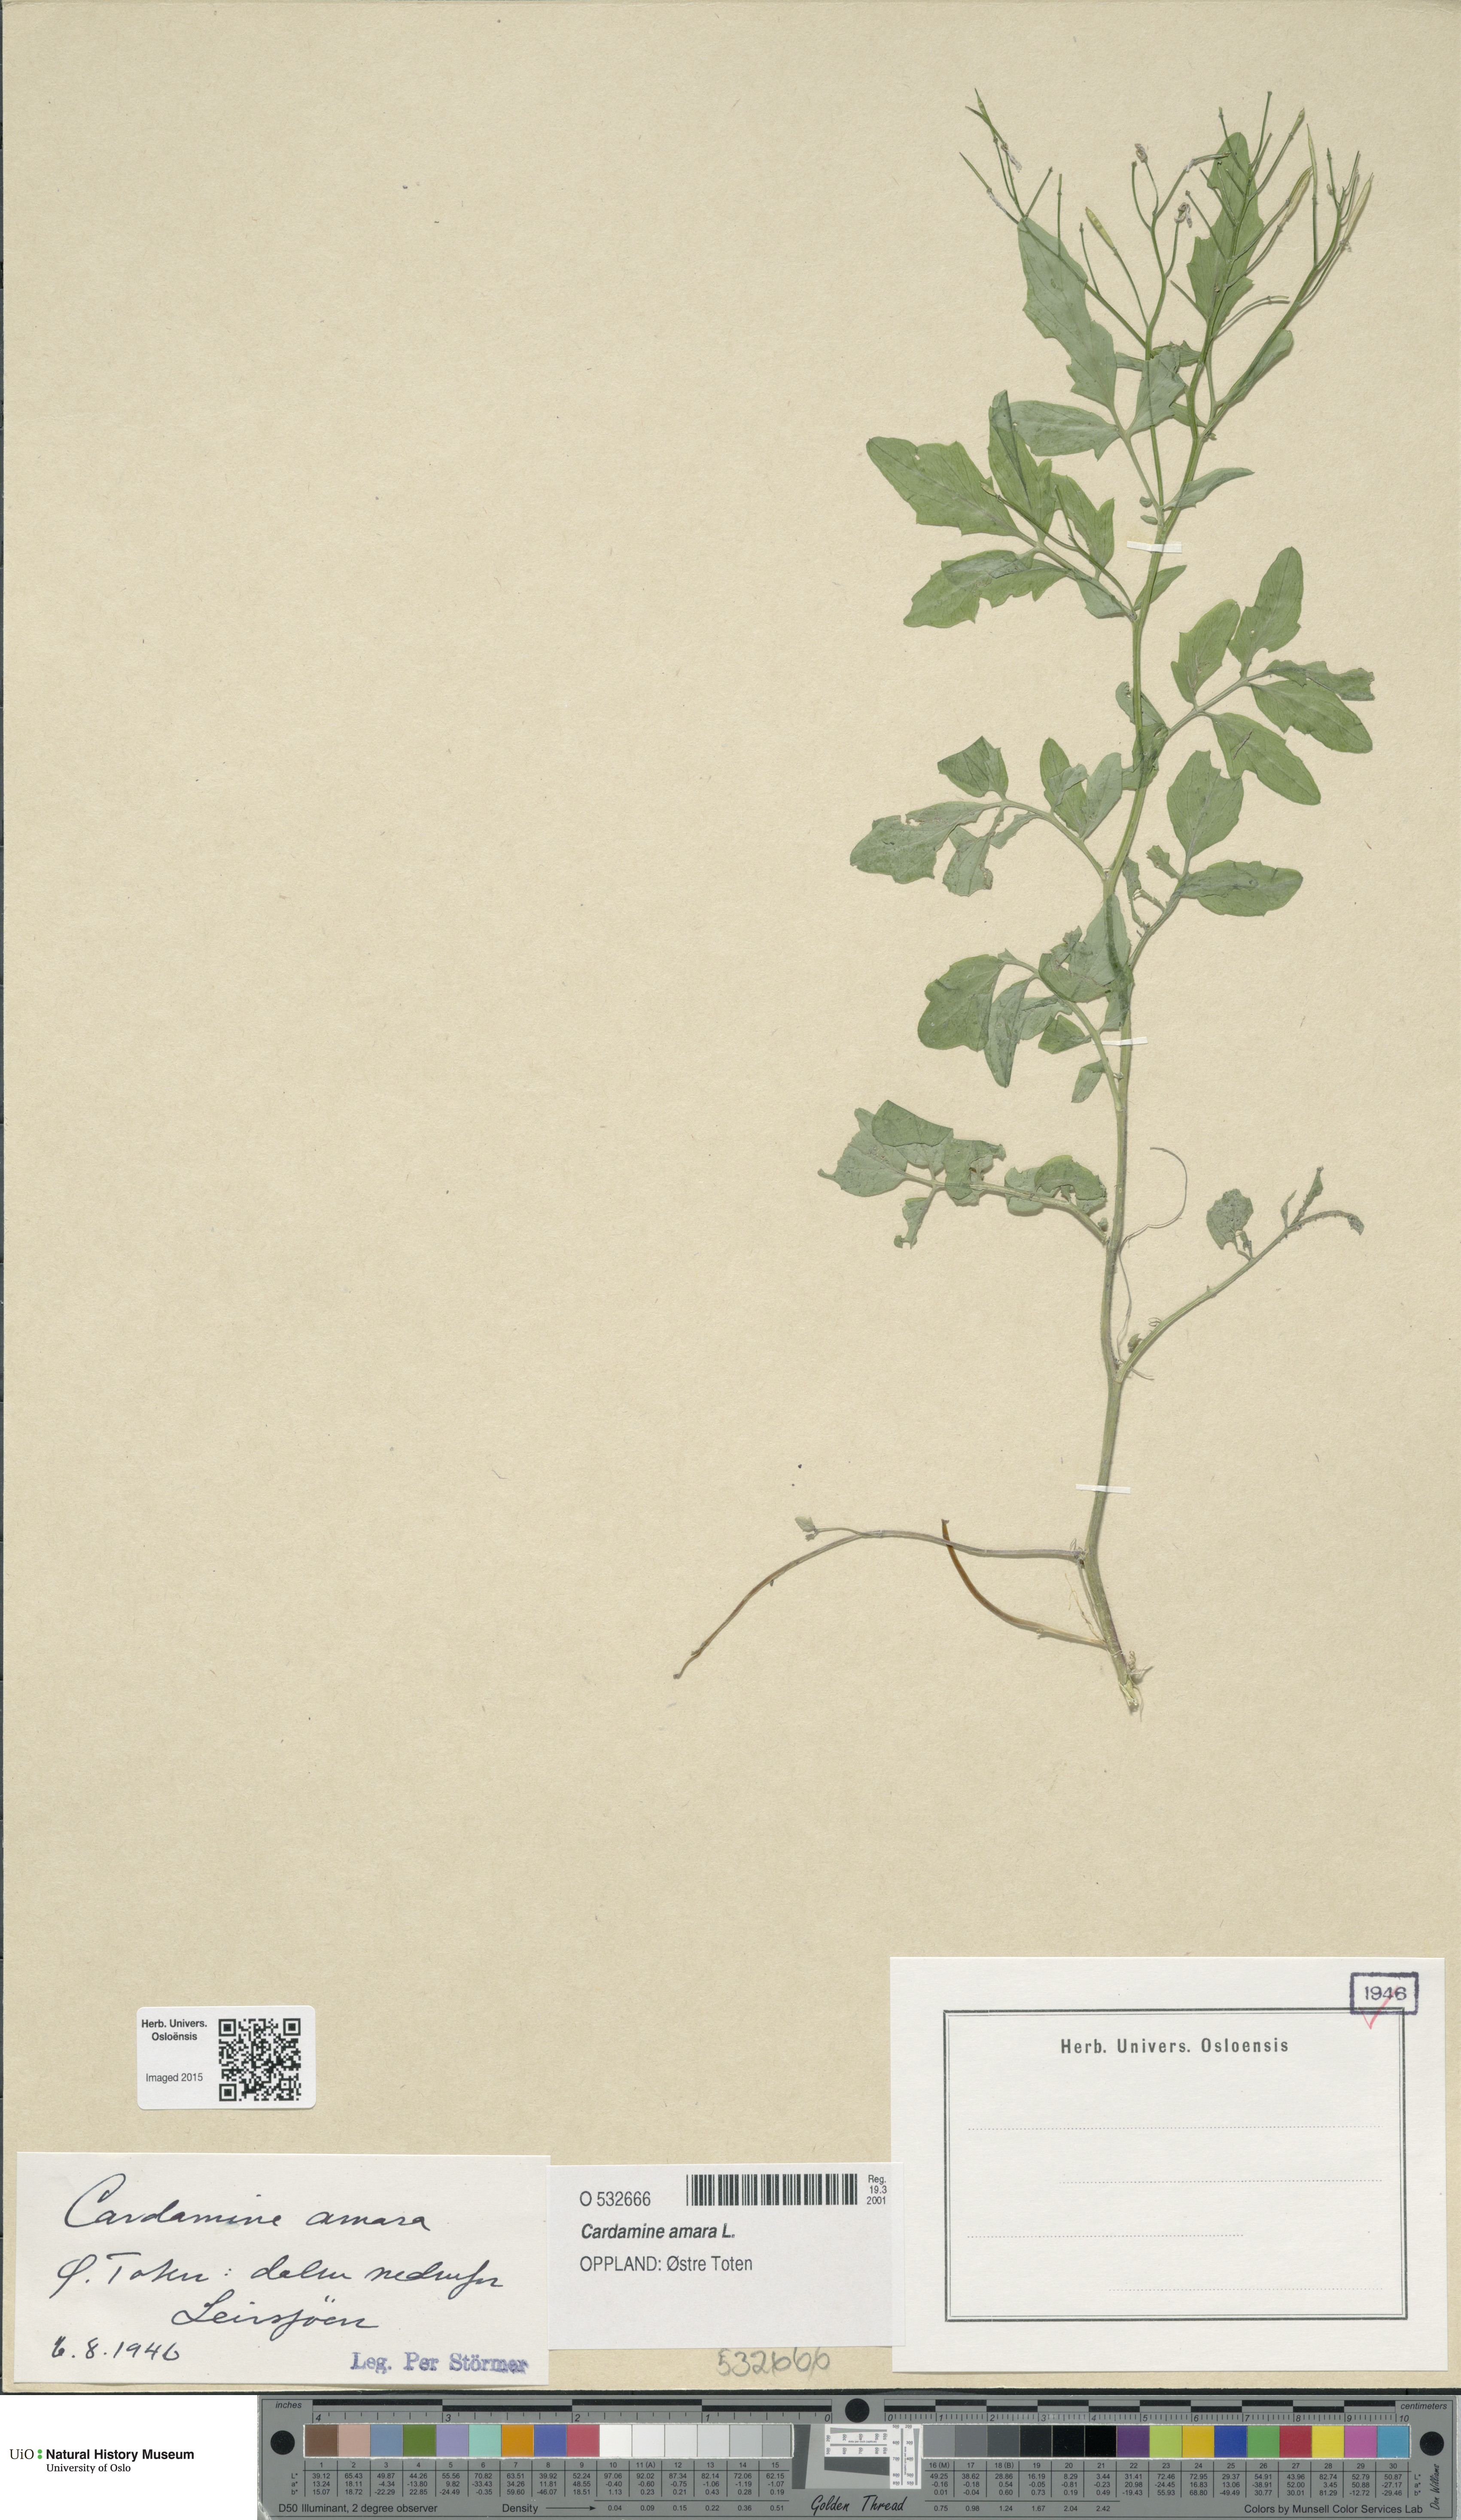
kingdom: Plantae
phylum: Tracheophyta
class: Magnoliopsida
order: Brassicales
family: Brassicaceae
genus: Cardamine
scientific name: Cardamine amara
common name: Large bitter-cress
